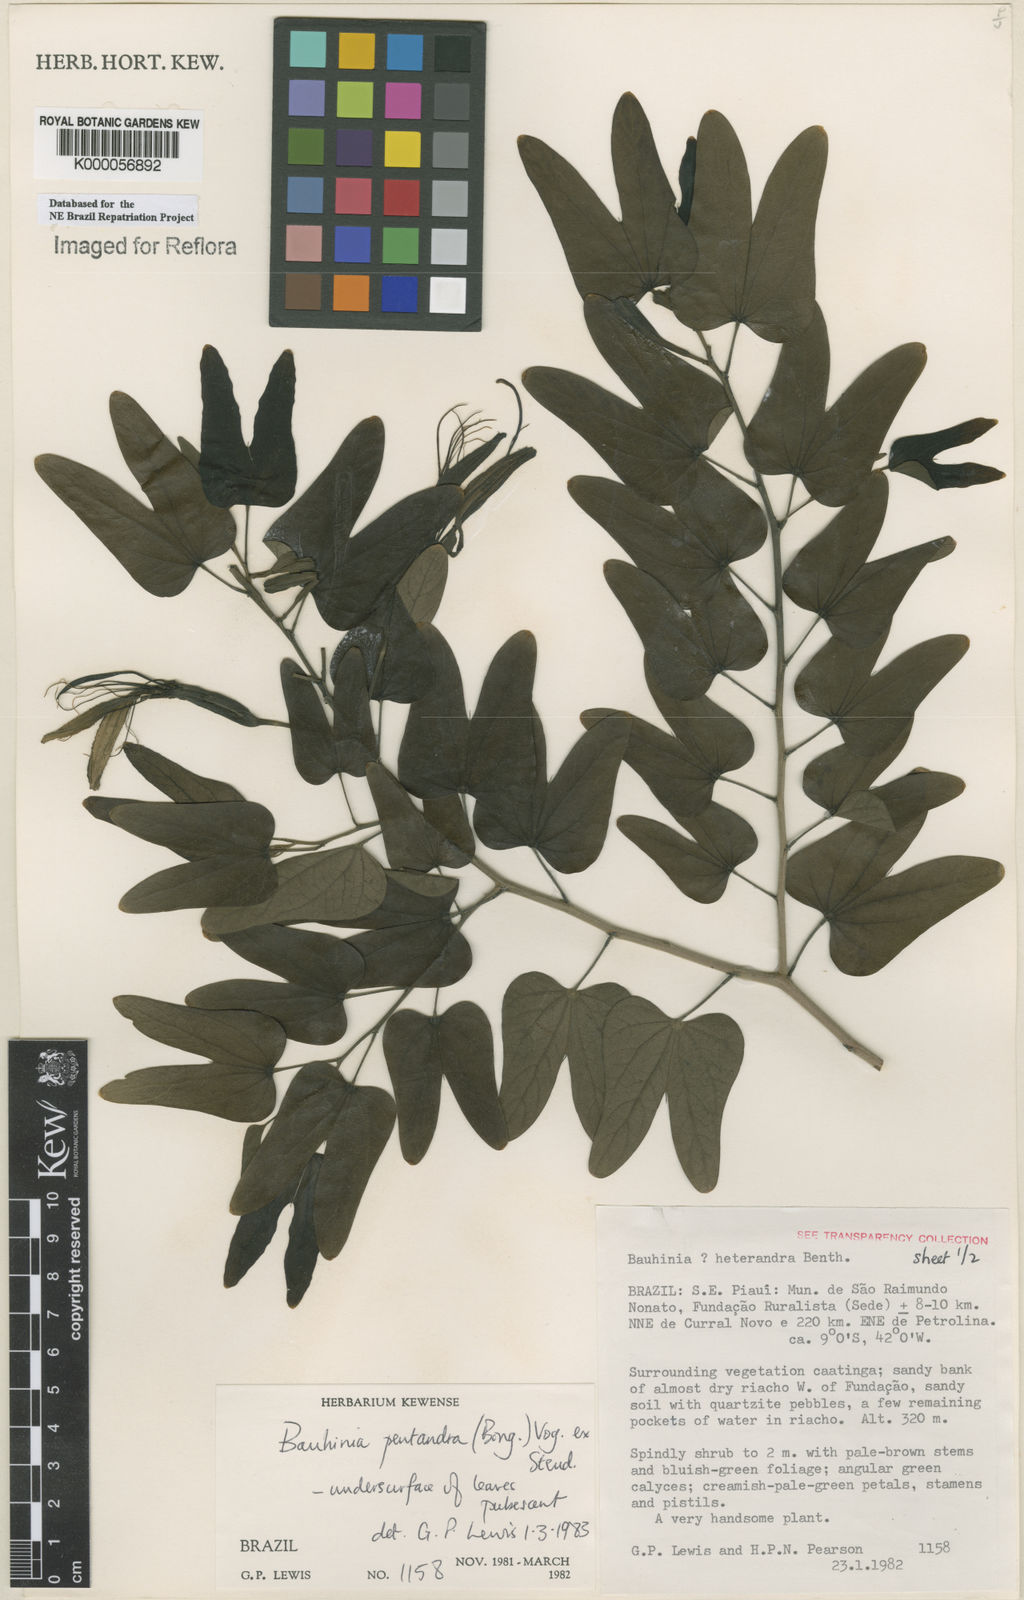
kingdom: Plantae
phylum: Tracheophyta
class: Magnoliopsida
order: Fabales
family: Fabaceae
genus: Bauhinia
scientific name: Bauhinia
